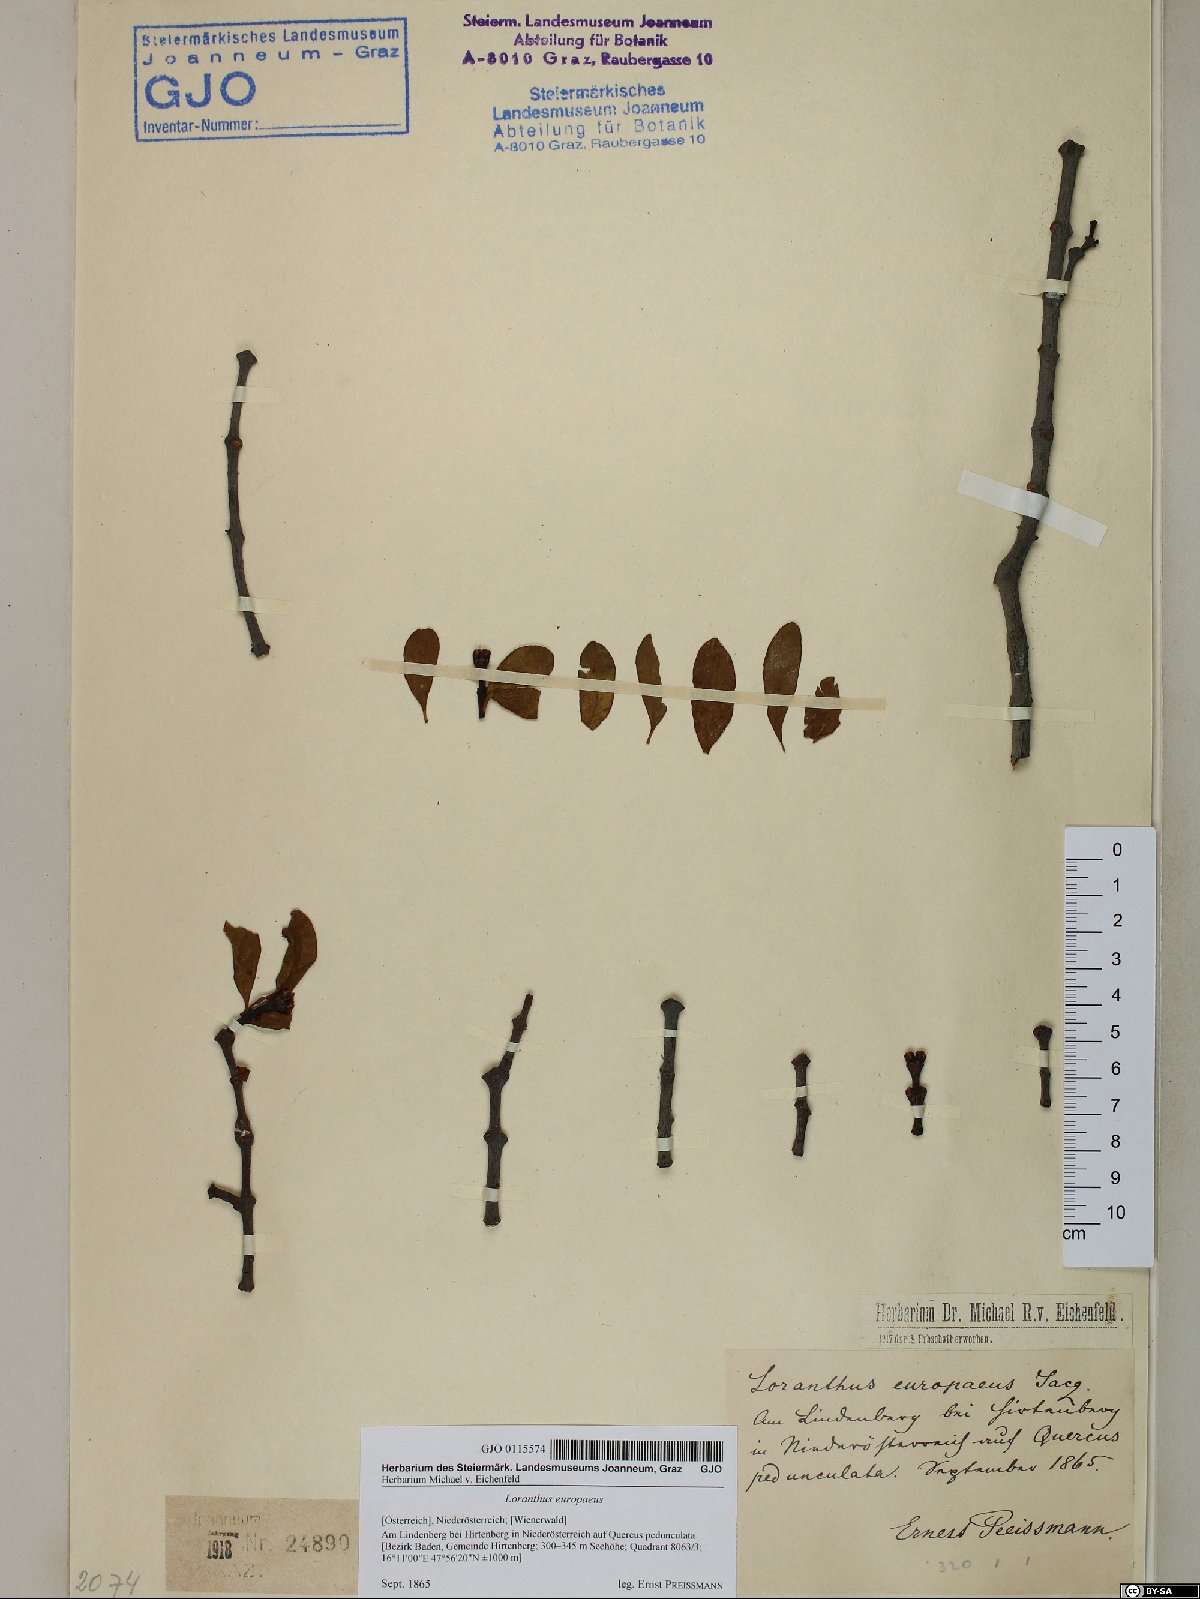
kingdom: Plantae
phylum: Tracheophyta
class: Magnoliopsida
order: Santalales
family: Loranthaceae
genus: Loranthus
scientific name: Loranthus europaeus
